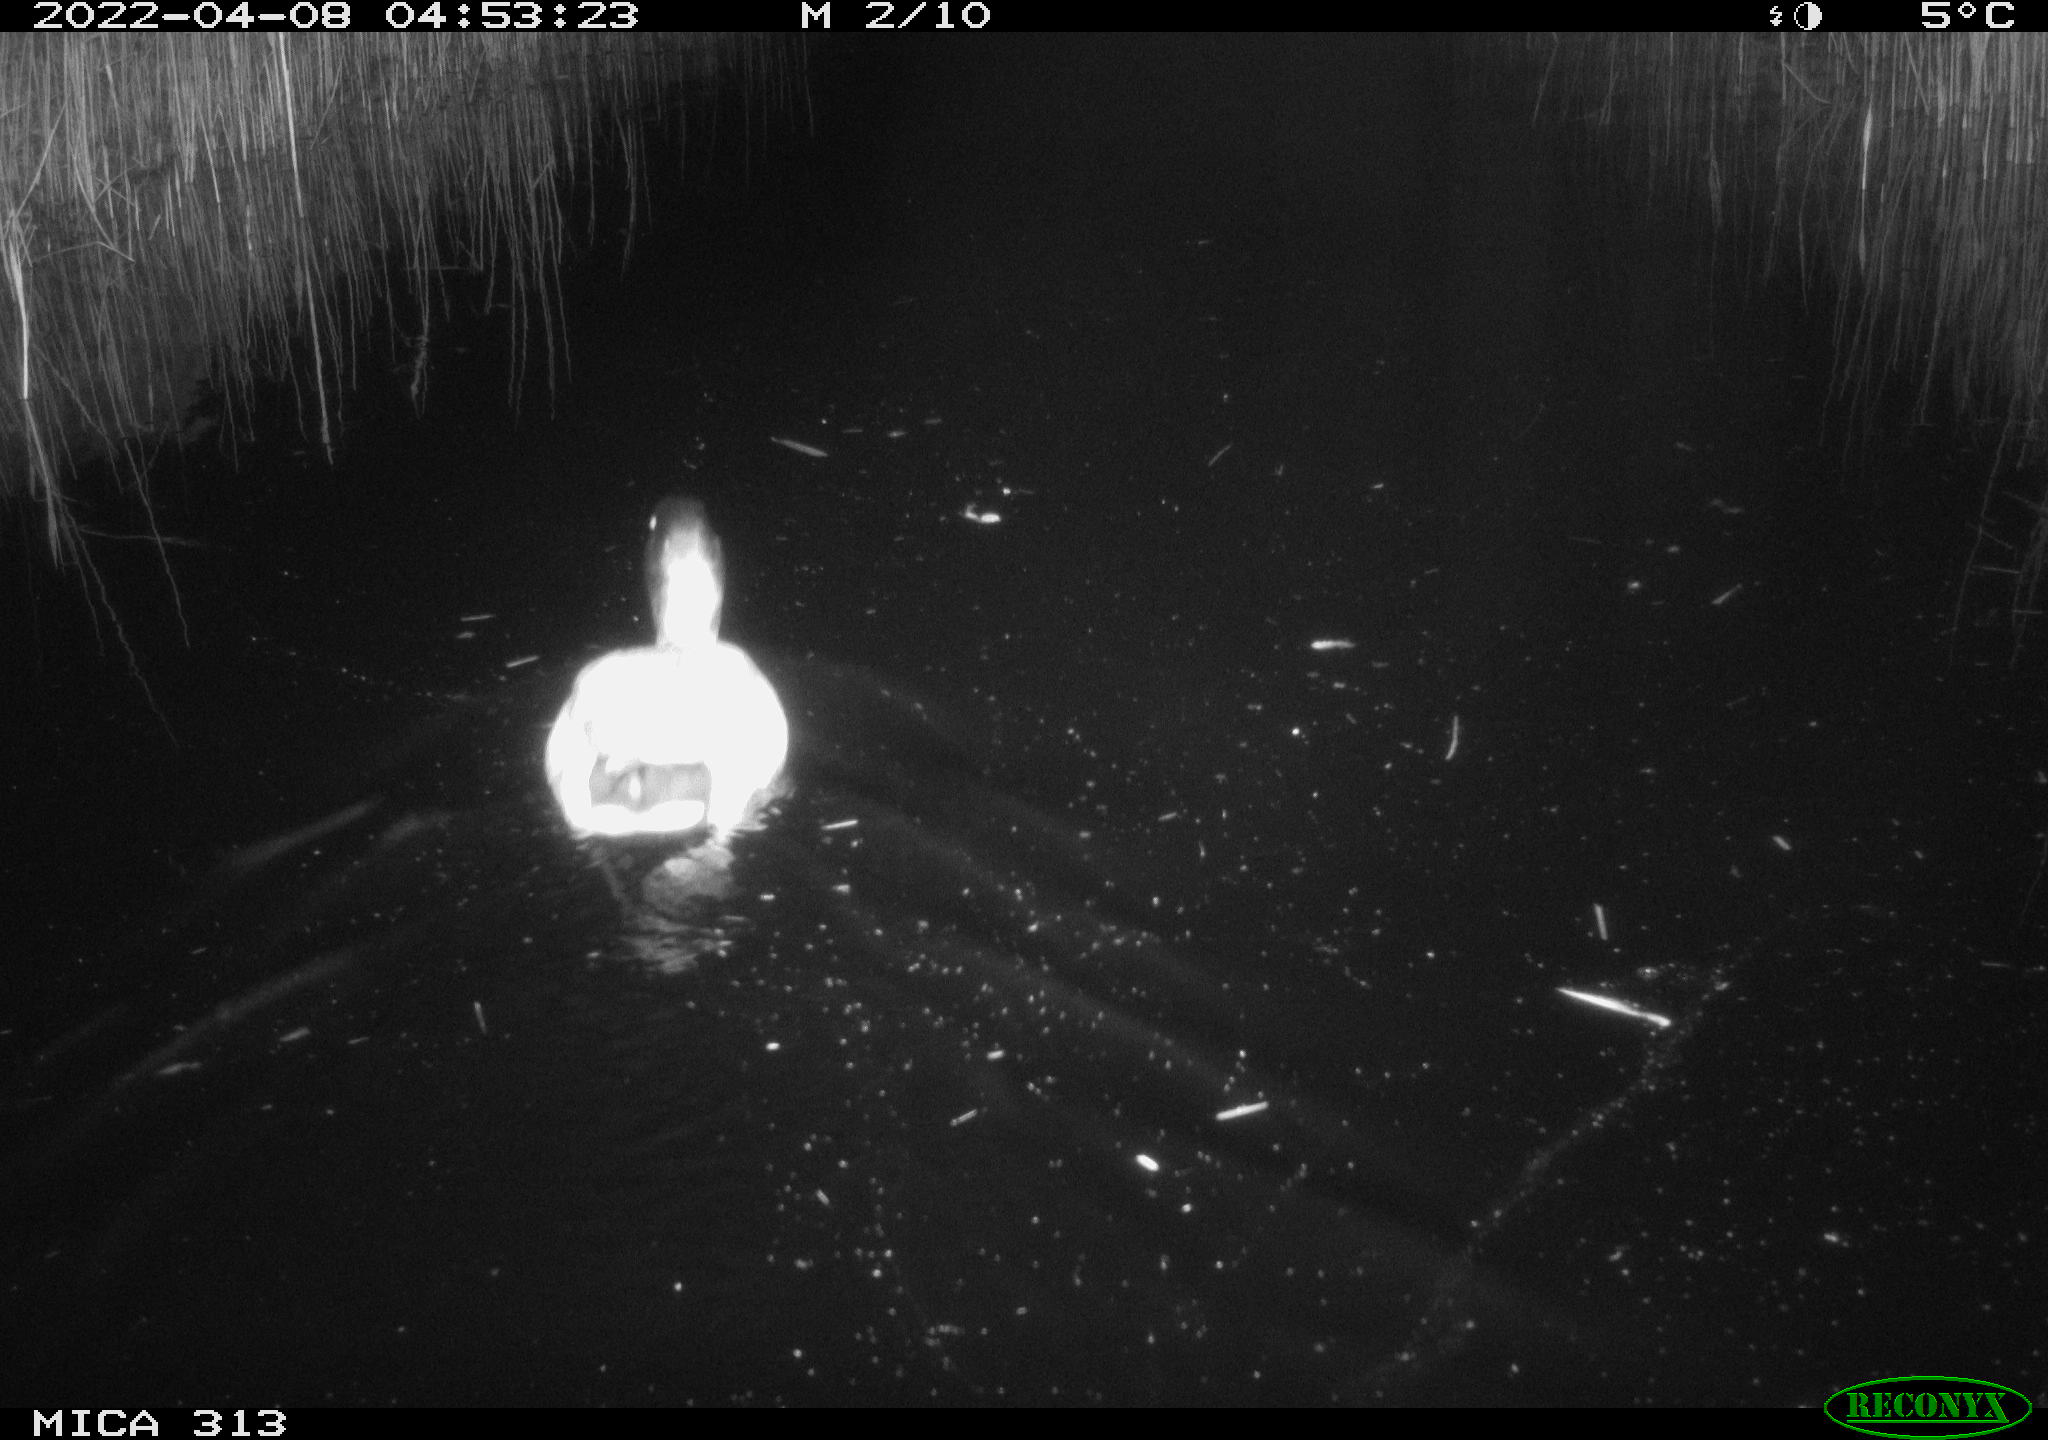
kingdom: Animalia
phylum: Chordata
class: Aves
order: Anseriformes
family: Anatidae
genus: Anas
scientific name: Anas platyrhynchos
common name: Mallard
